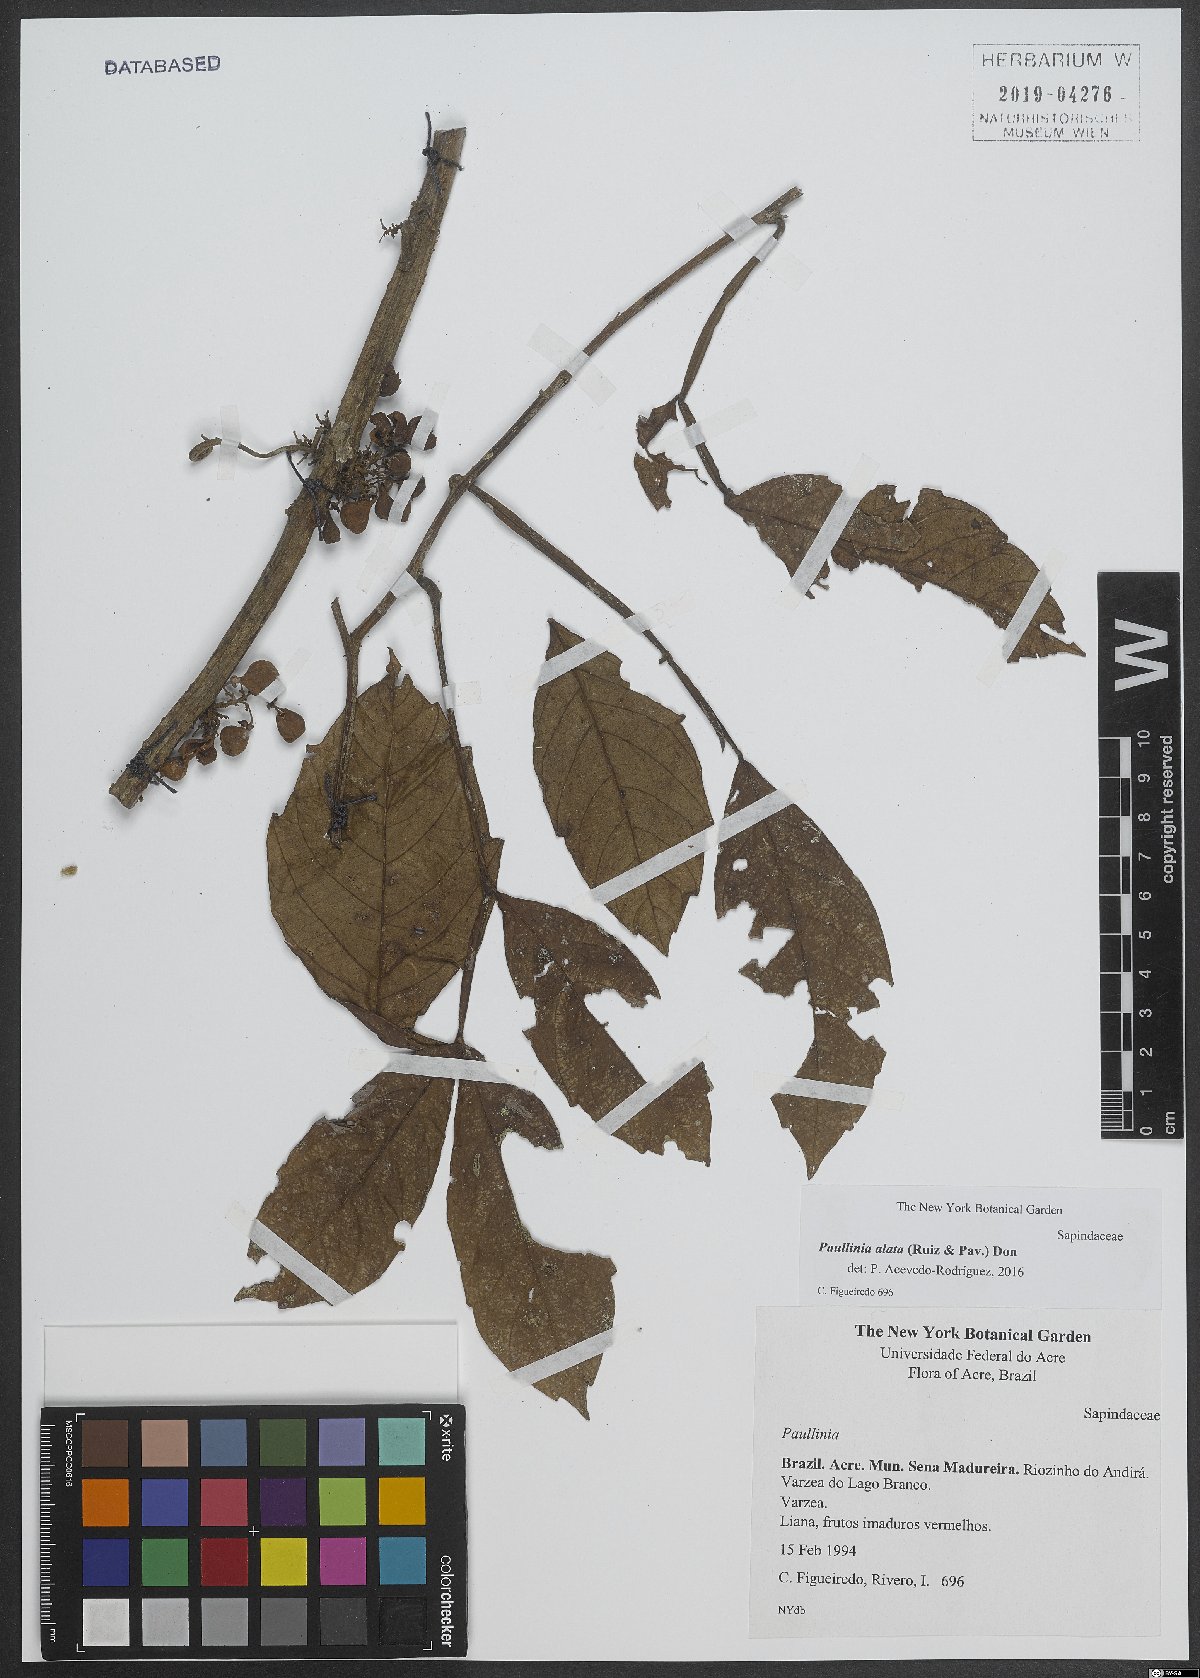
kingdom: Plantae
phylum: Tracheophyta
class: Magnoliopsida
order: Sapindales
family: Sapindaceae
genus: Paullinia
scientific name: Paullinia alata
